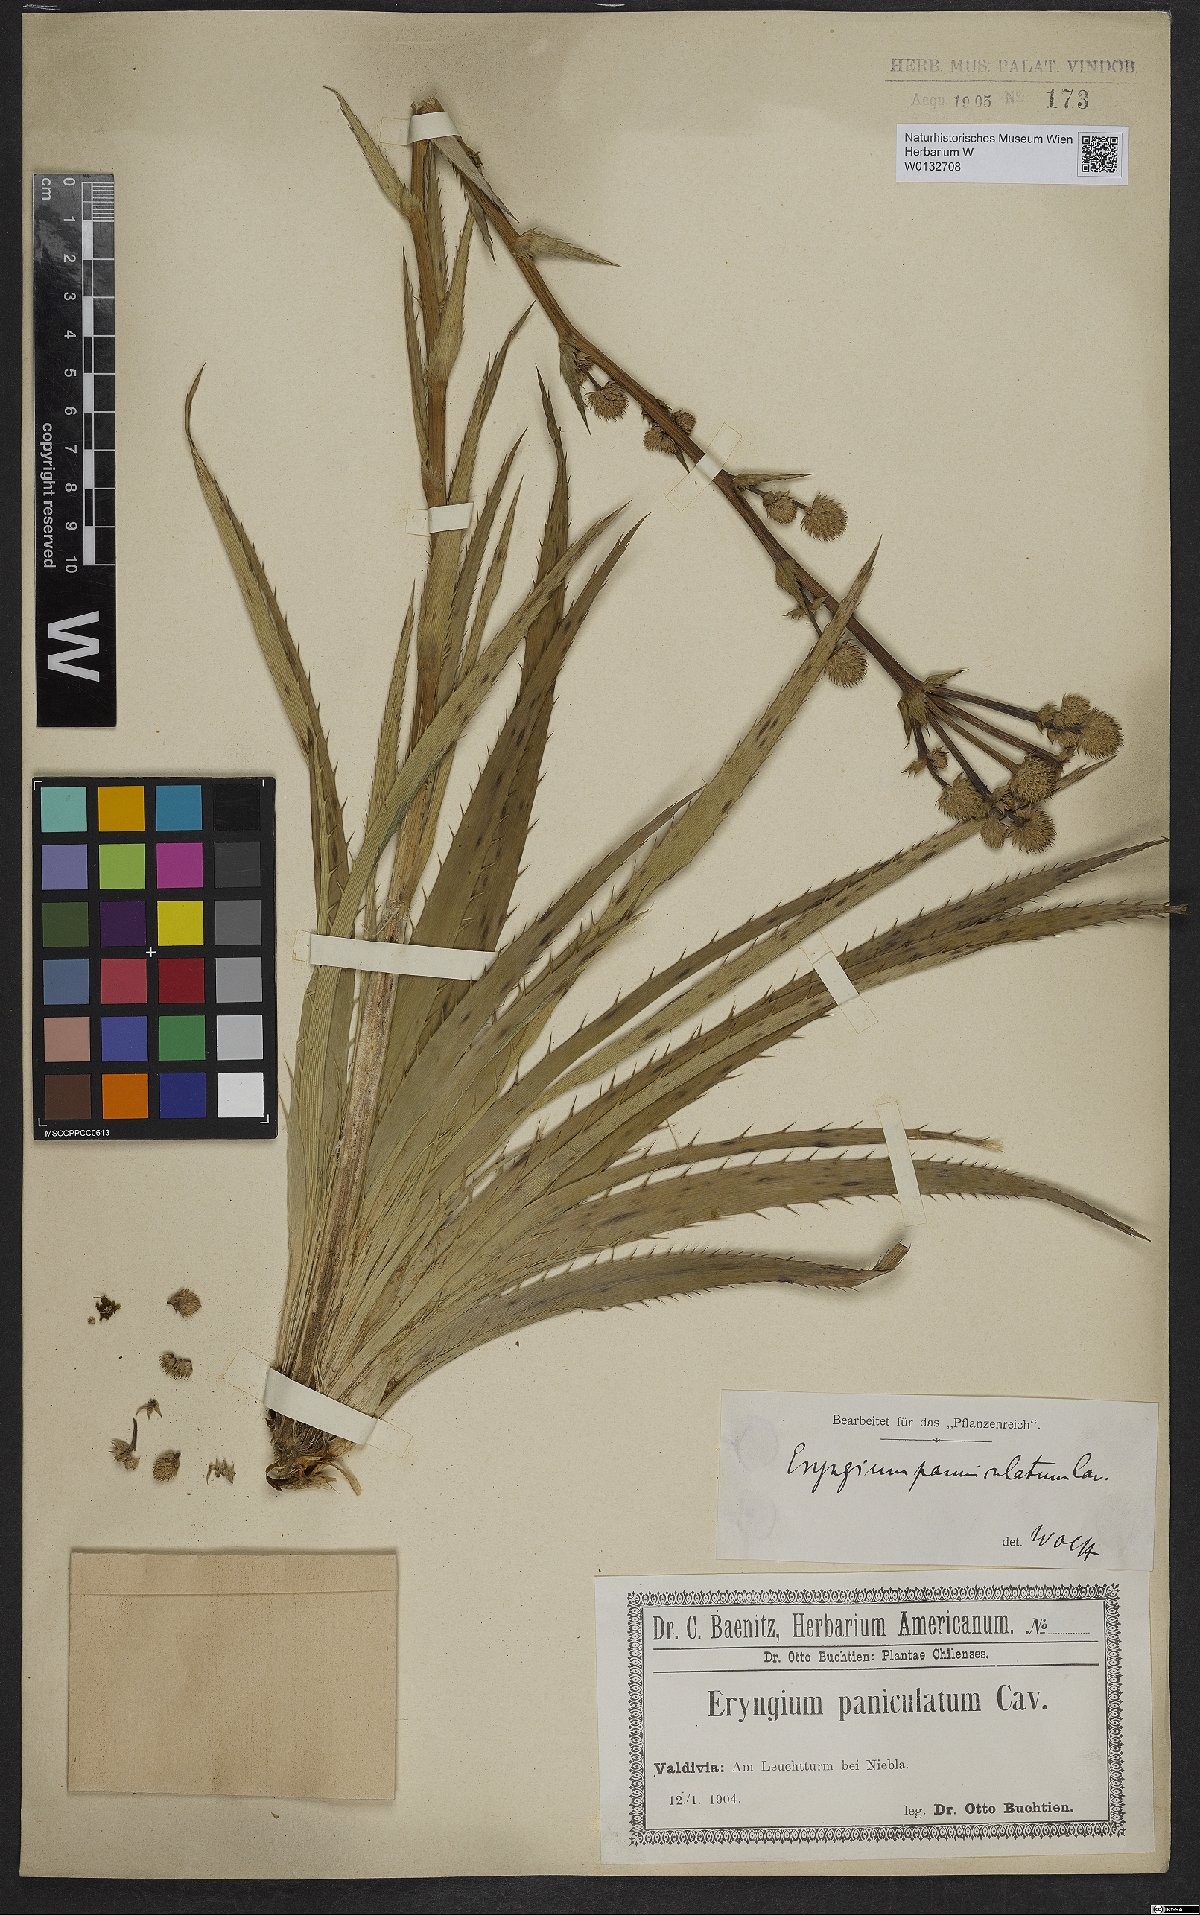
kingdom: Plantae
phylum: Tracheophyta
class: Magnoliopsida
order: Apiales
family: Apiaceae
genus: Eryngium
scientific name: Eryngium humboldtii
